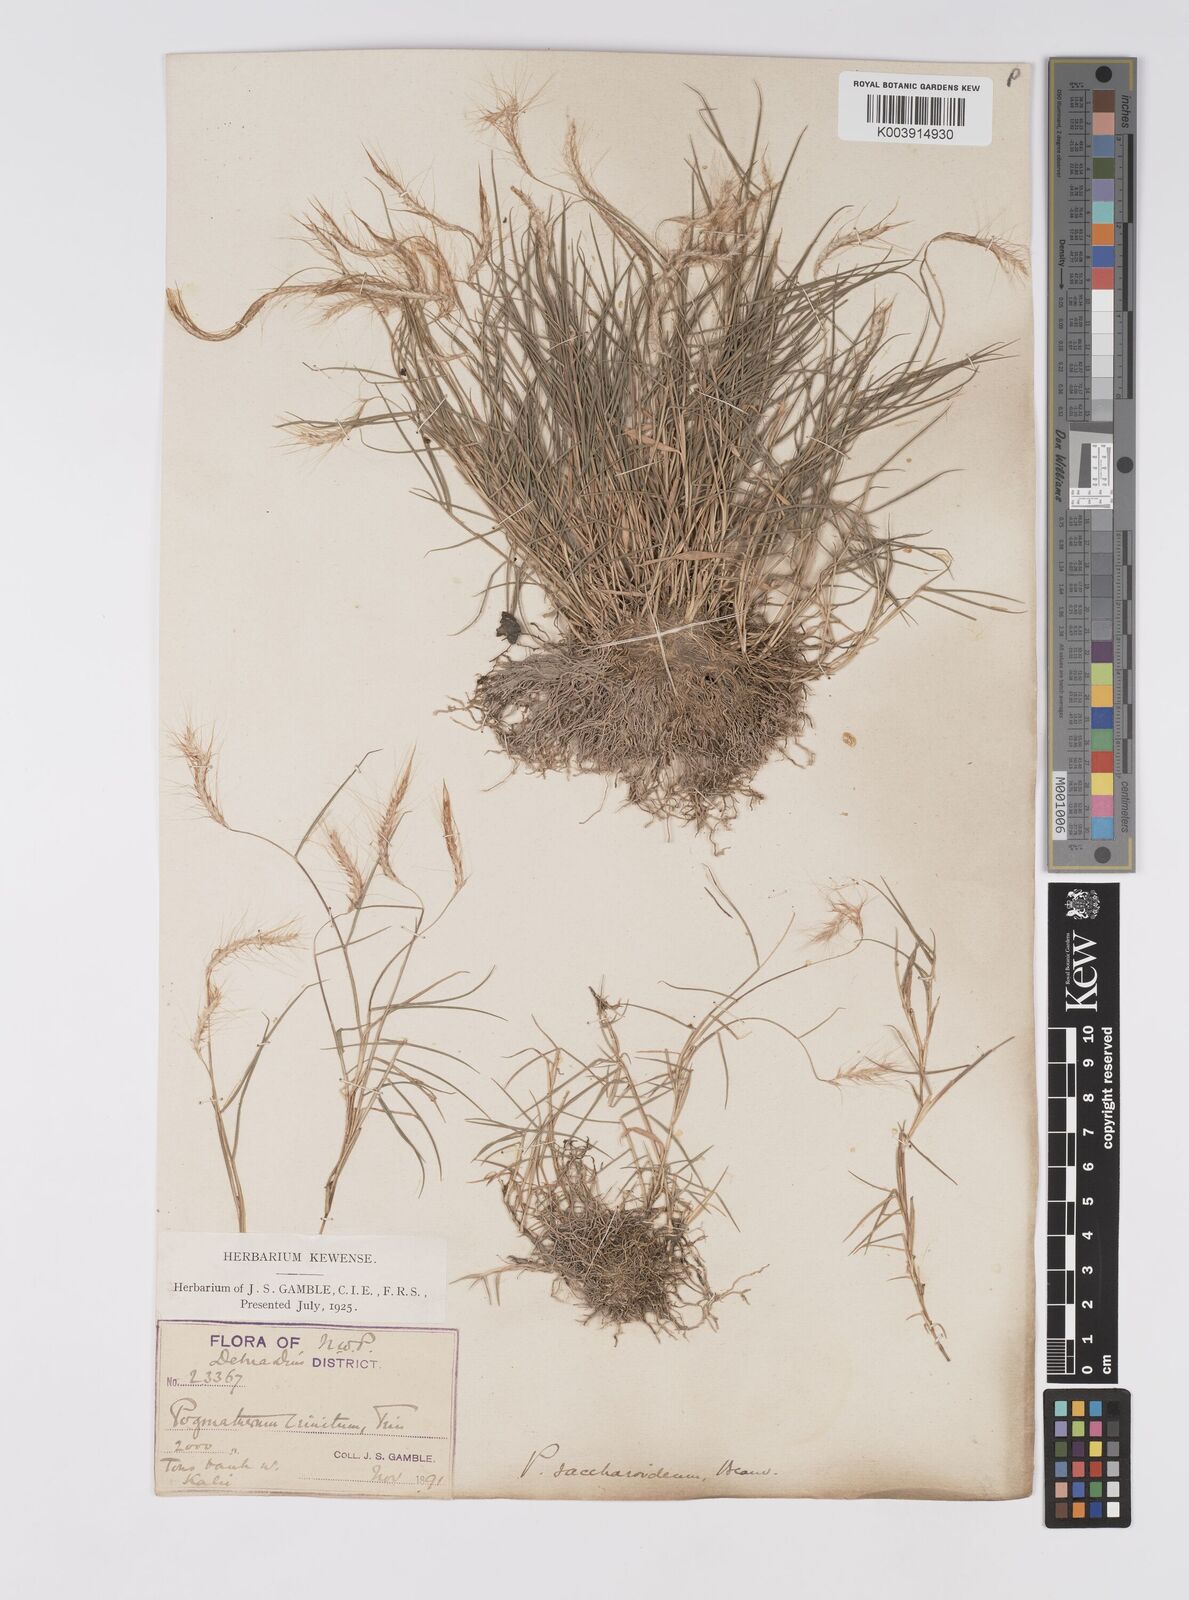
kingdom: Plantae
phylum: Tracheophyta
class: Liliopsida
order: Poales
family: Poaceae
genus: Pogonatherum
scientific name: Pogonatherum paniceum
